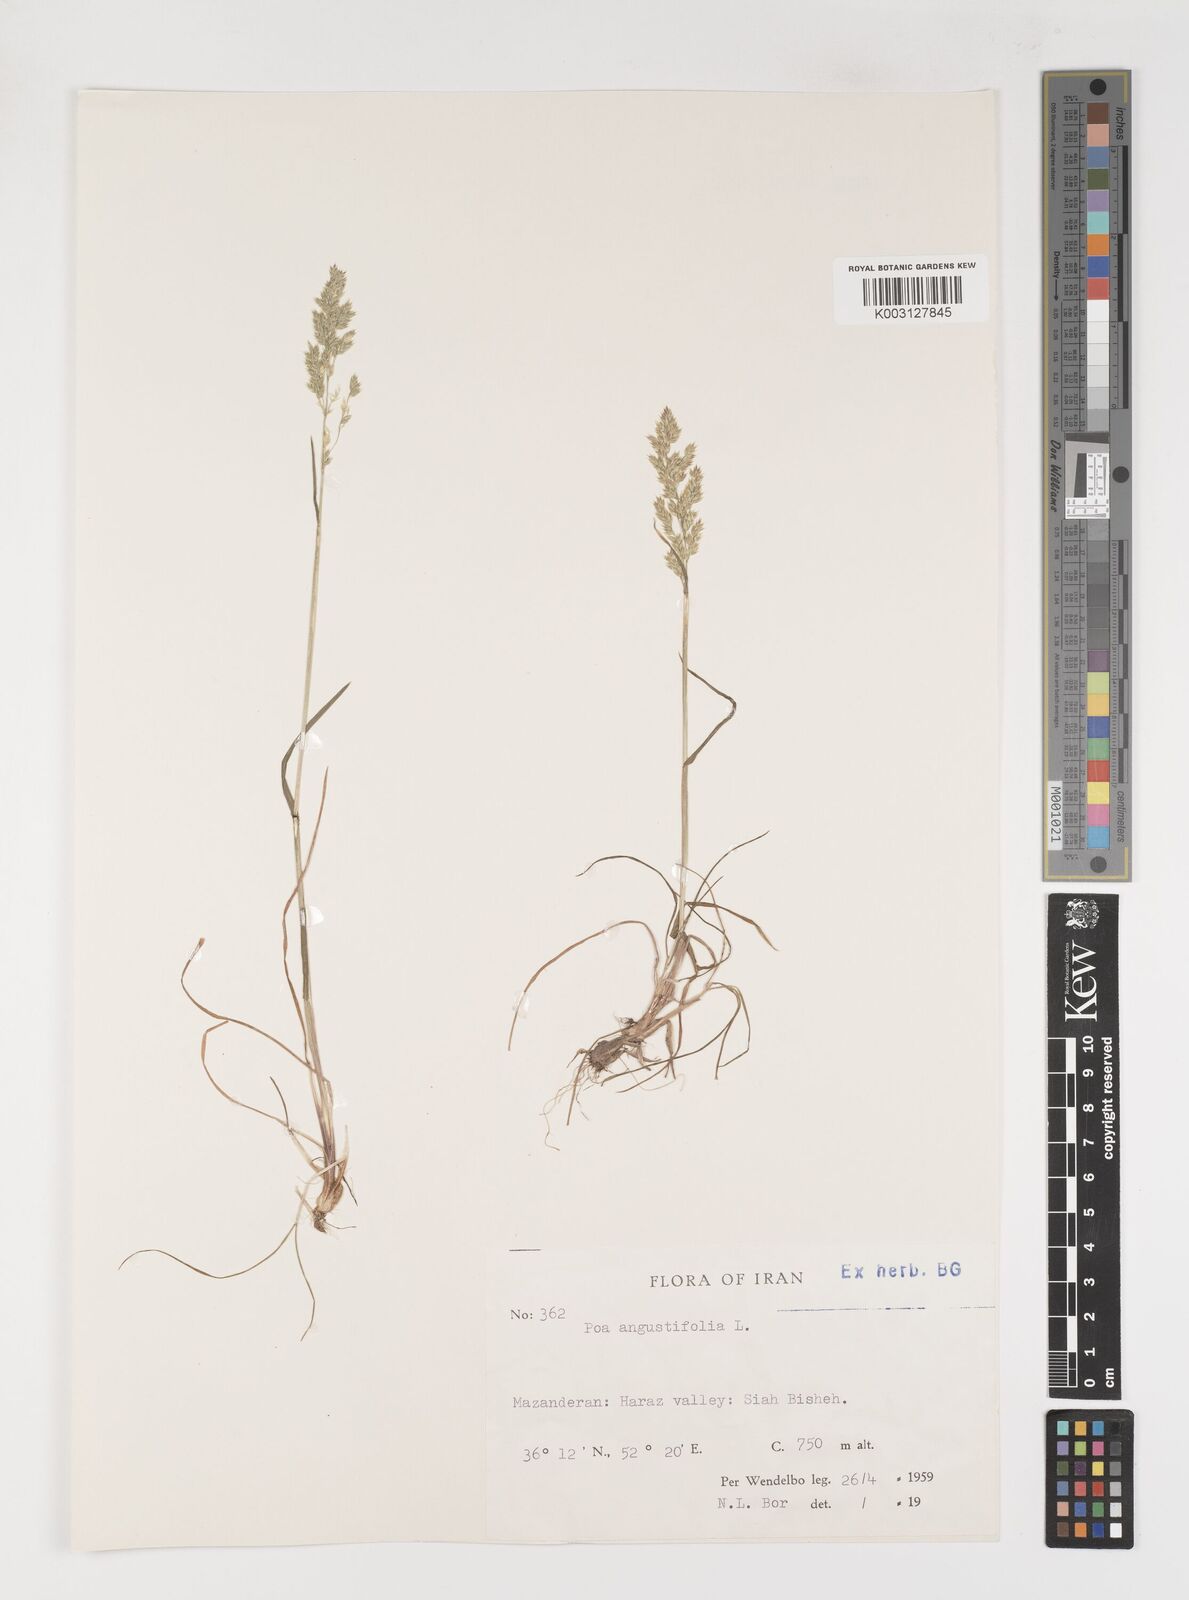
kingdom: Plantae
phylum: Tracheophyta
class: Liliopsida
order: Poales
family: Poaceae
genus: Poa
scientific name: Poa angustifolia
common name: Narrow-leaved meadow-grass
